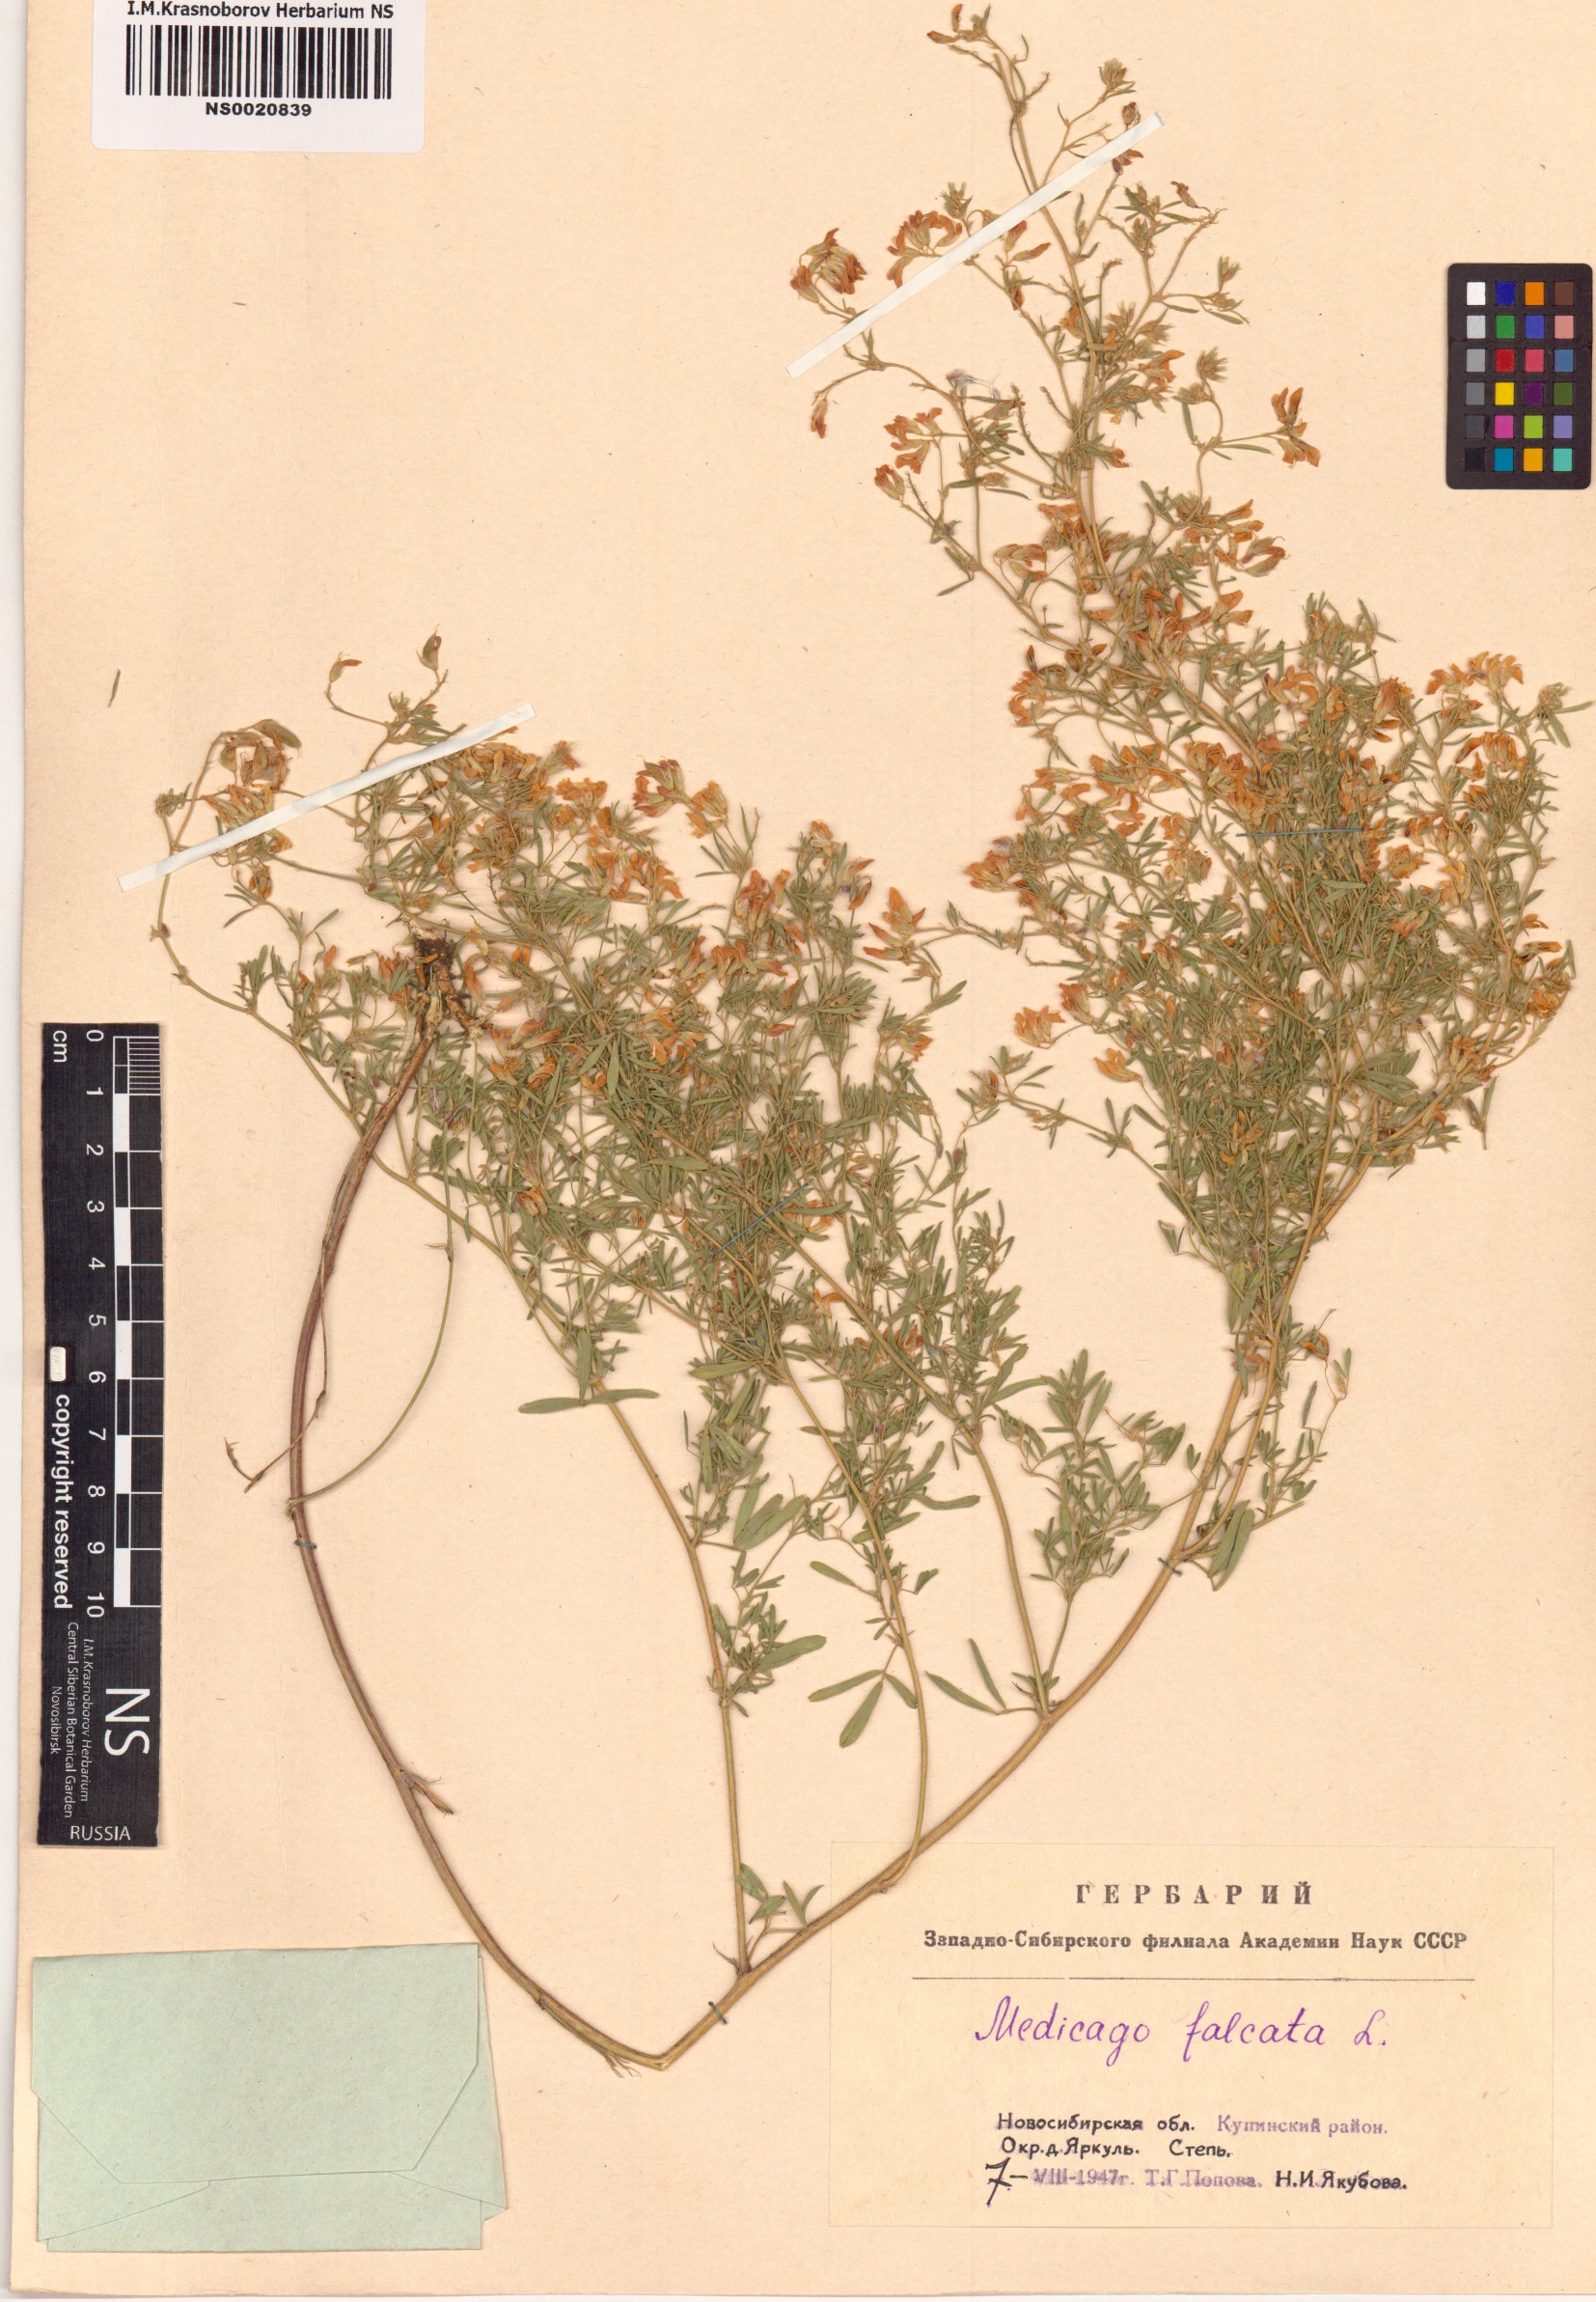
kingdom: Plantae
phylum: Tracheophyta
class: Magnoliopsida
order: Fabales
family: Fabaceae
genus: Medicago
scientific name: Medicago falcata
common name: Sickle medick
